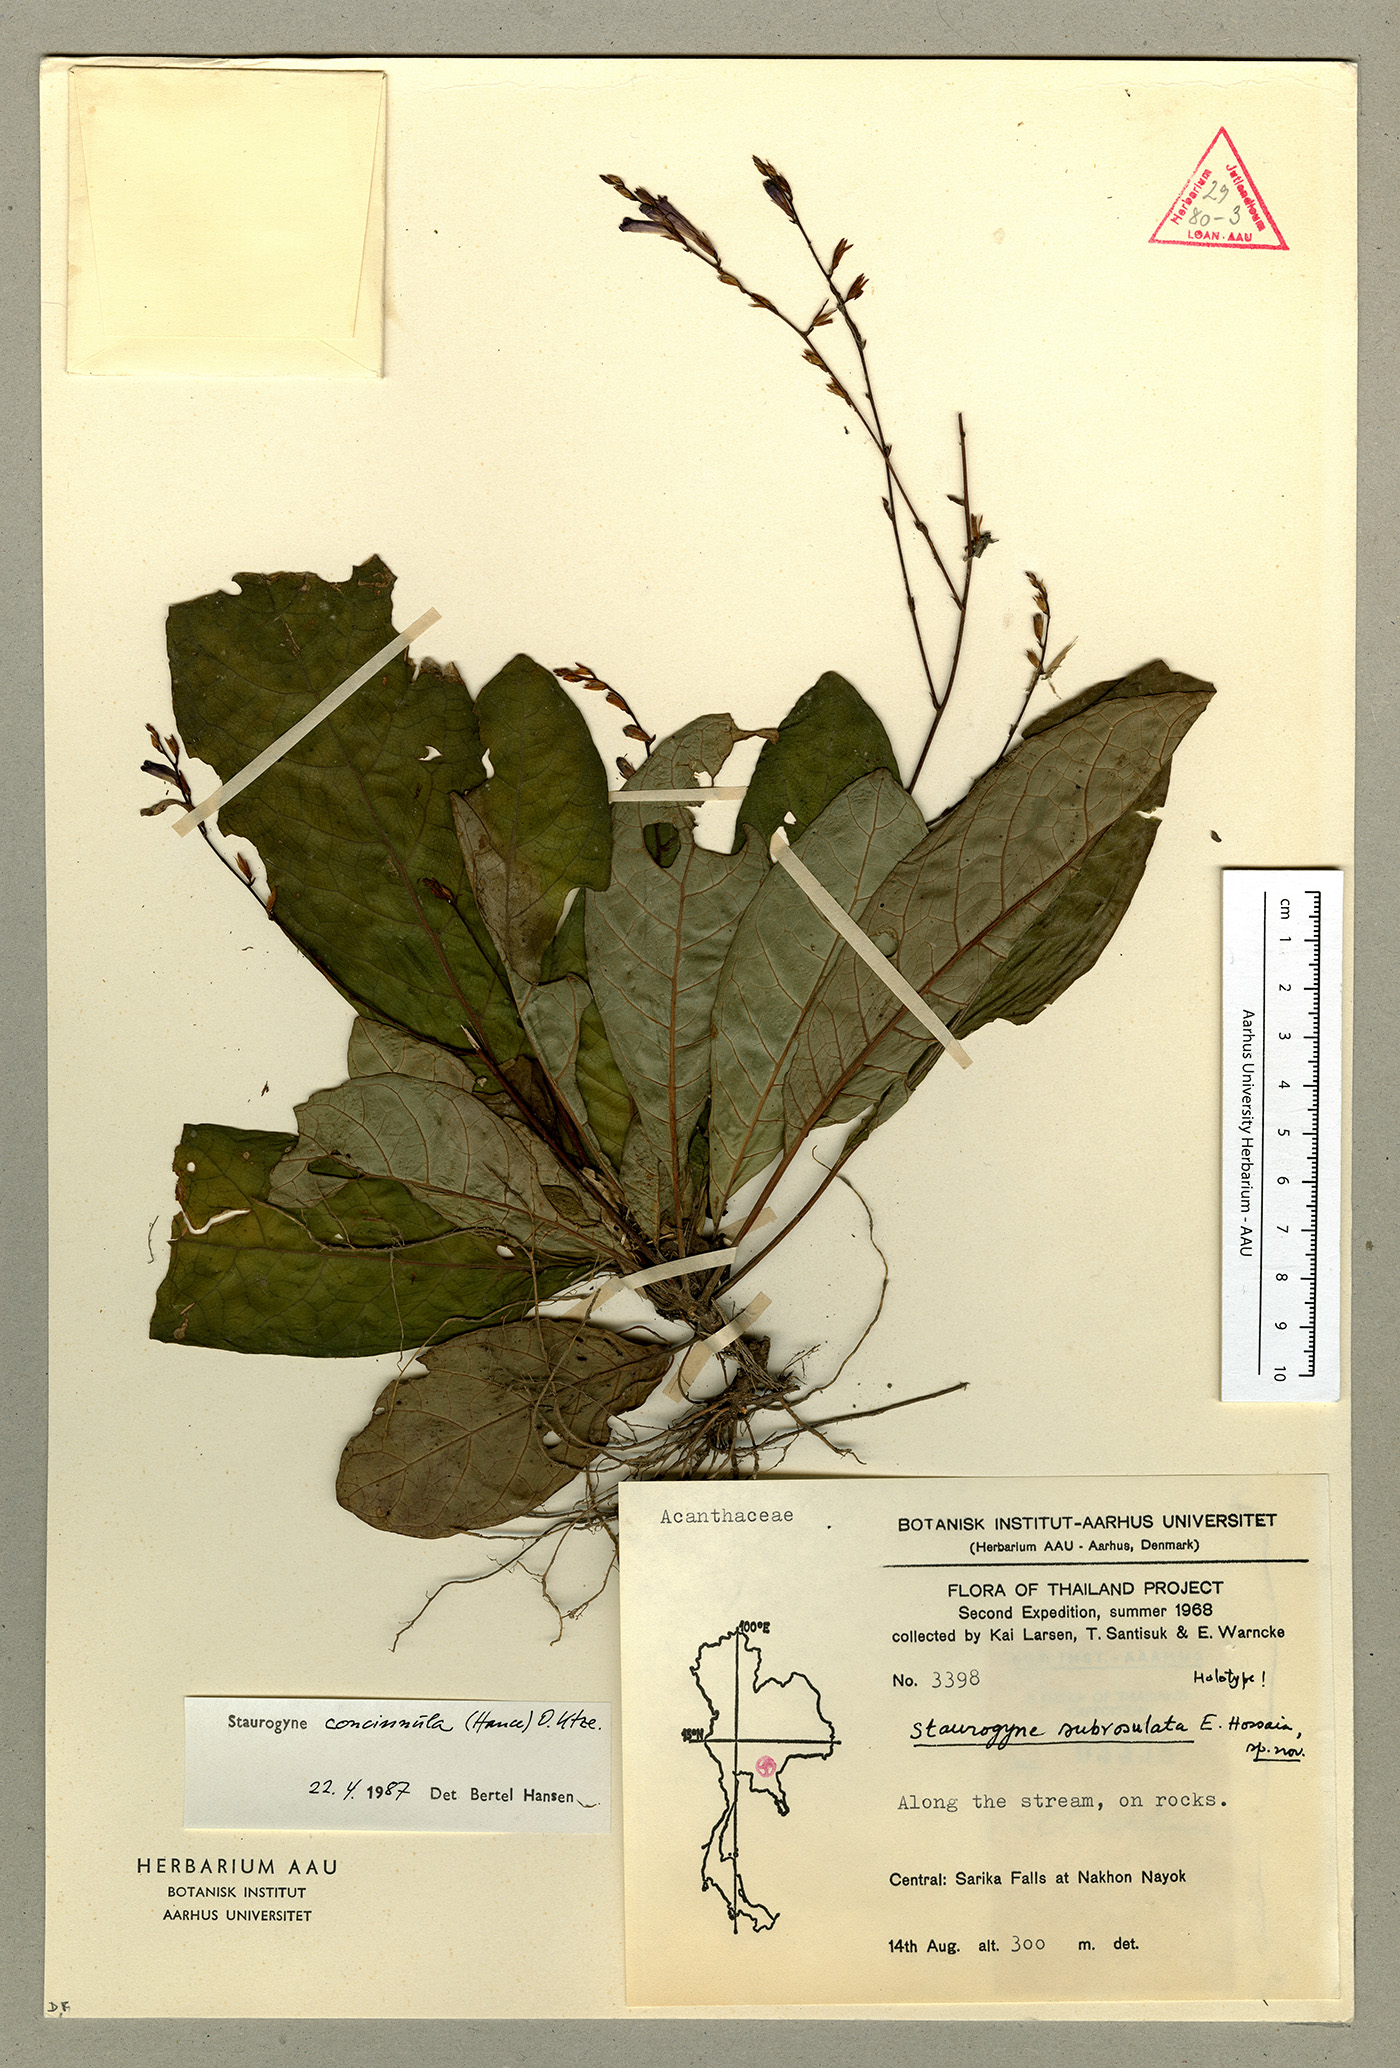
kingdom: Plantae
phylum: Tracheophyta
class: Magnoliopsida
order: Lamiales
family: Acanthaceae
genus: Staurogyne
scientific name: Staurogyne concinnula
